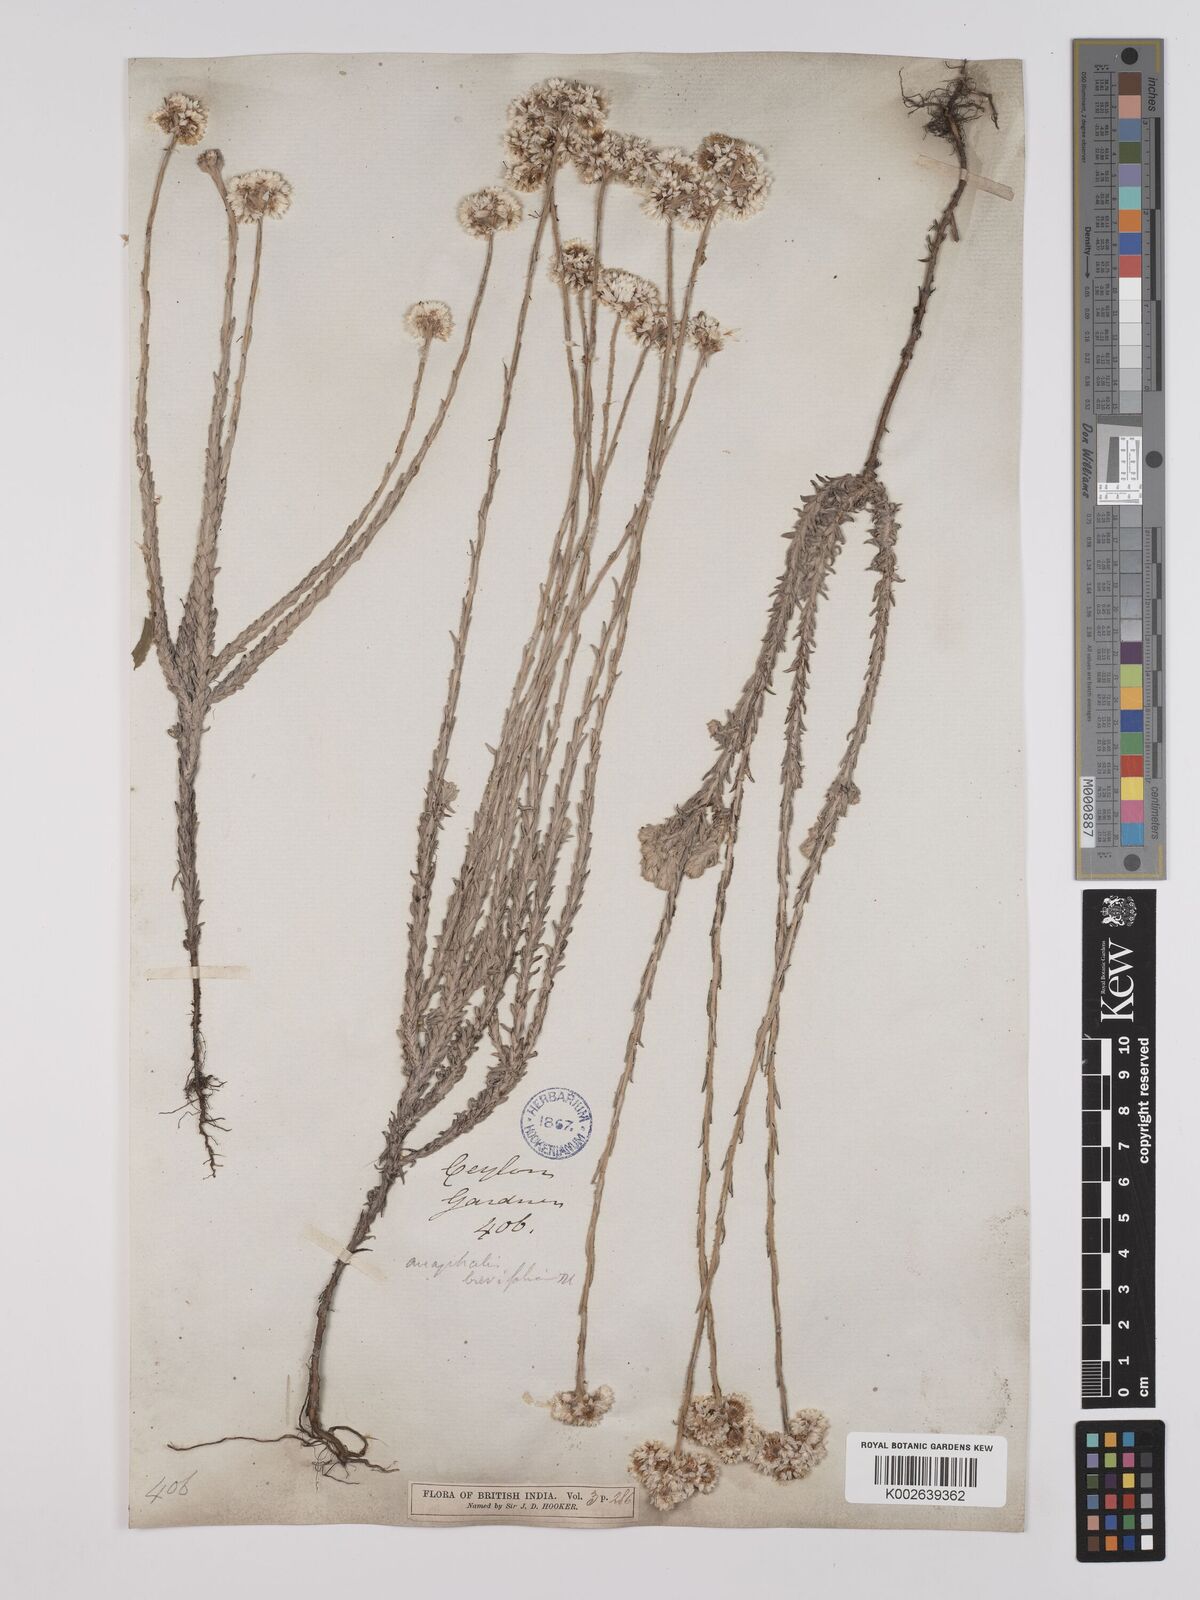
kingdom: Plantae
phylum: Tracheophyta
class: Magnoliopsida
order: Asterales
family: Asteraceae
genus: Anaphalis
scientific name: Anaphalis brevifolia
